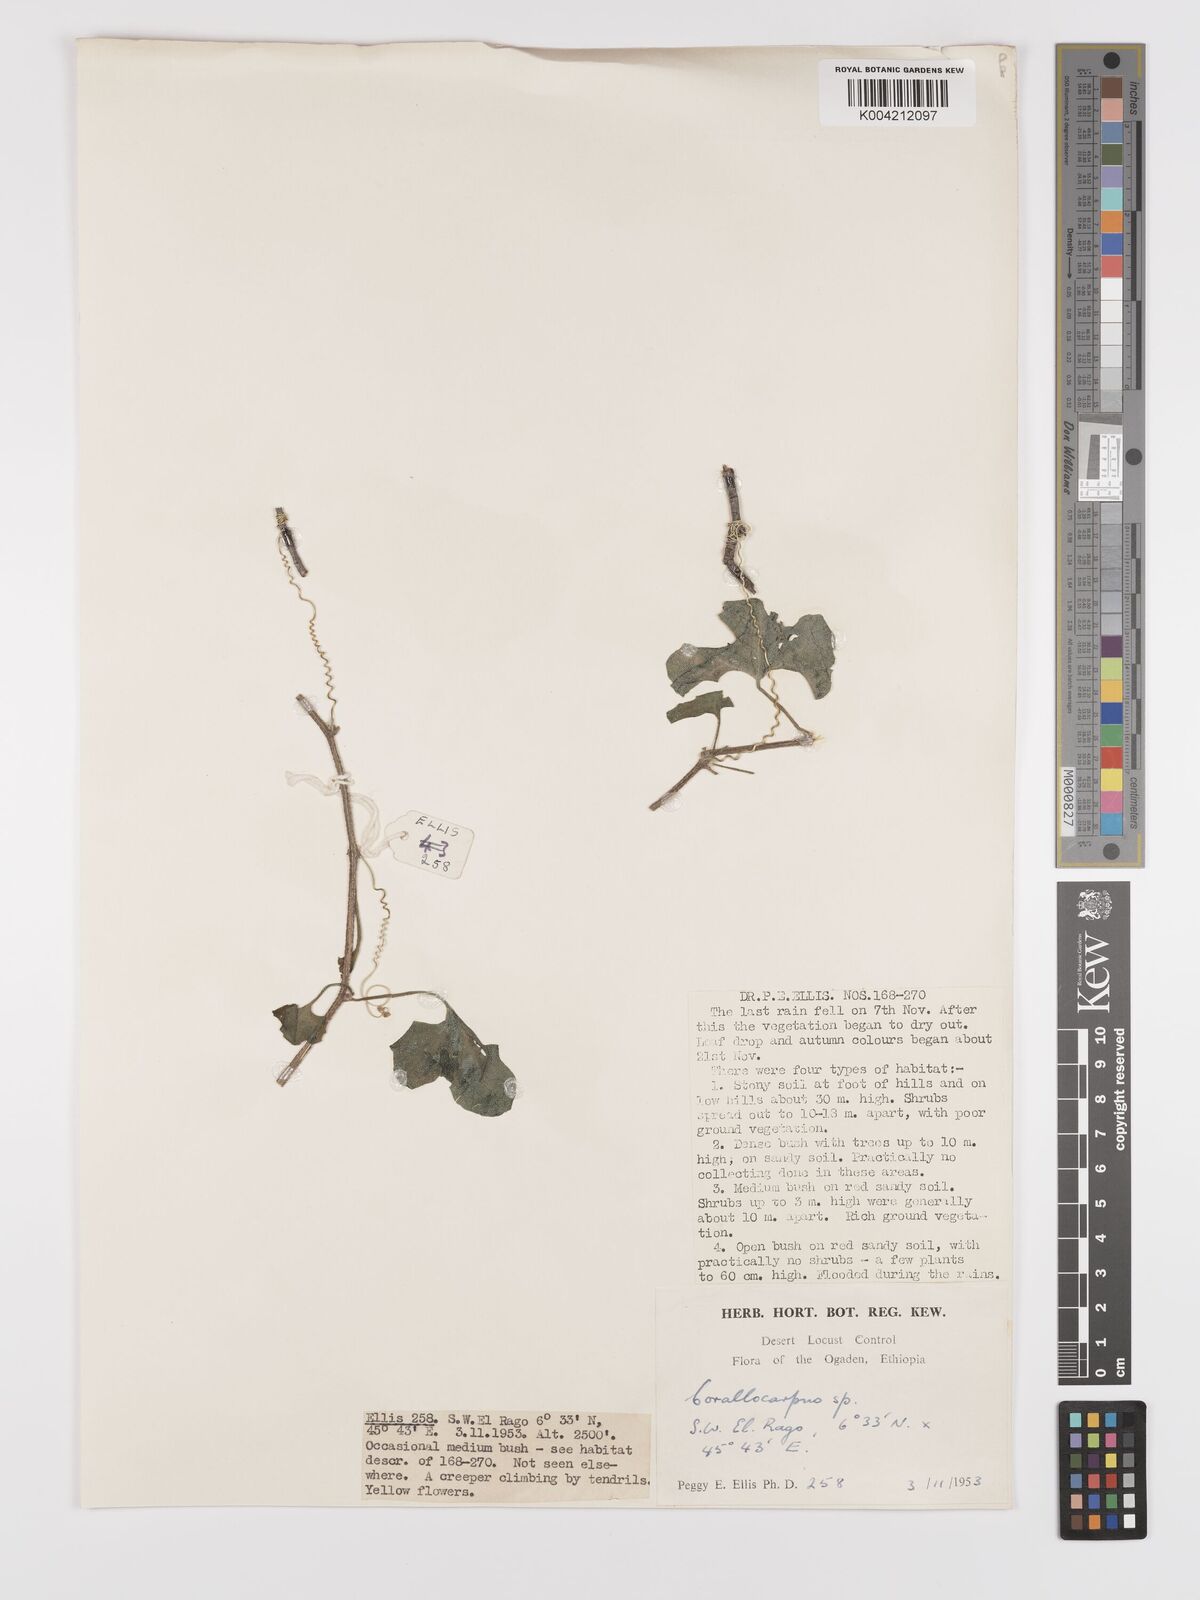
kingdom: Plantae
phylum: Tracheophyta
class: Magnoliopsida
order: Cucurbitales
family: Cucurbitaceae
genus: Kedrostis
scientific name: Kedrostis gijef
